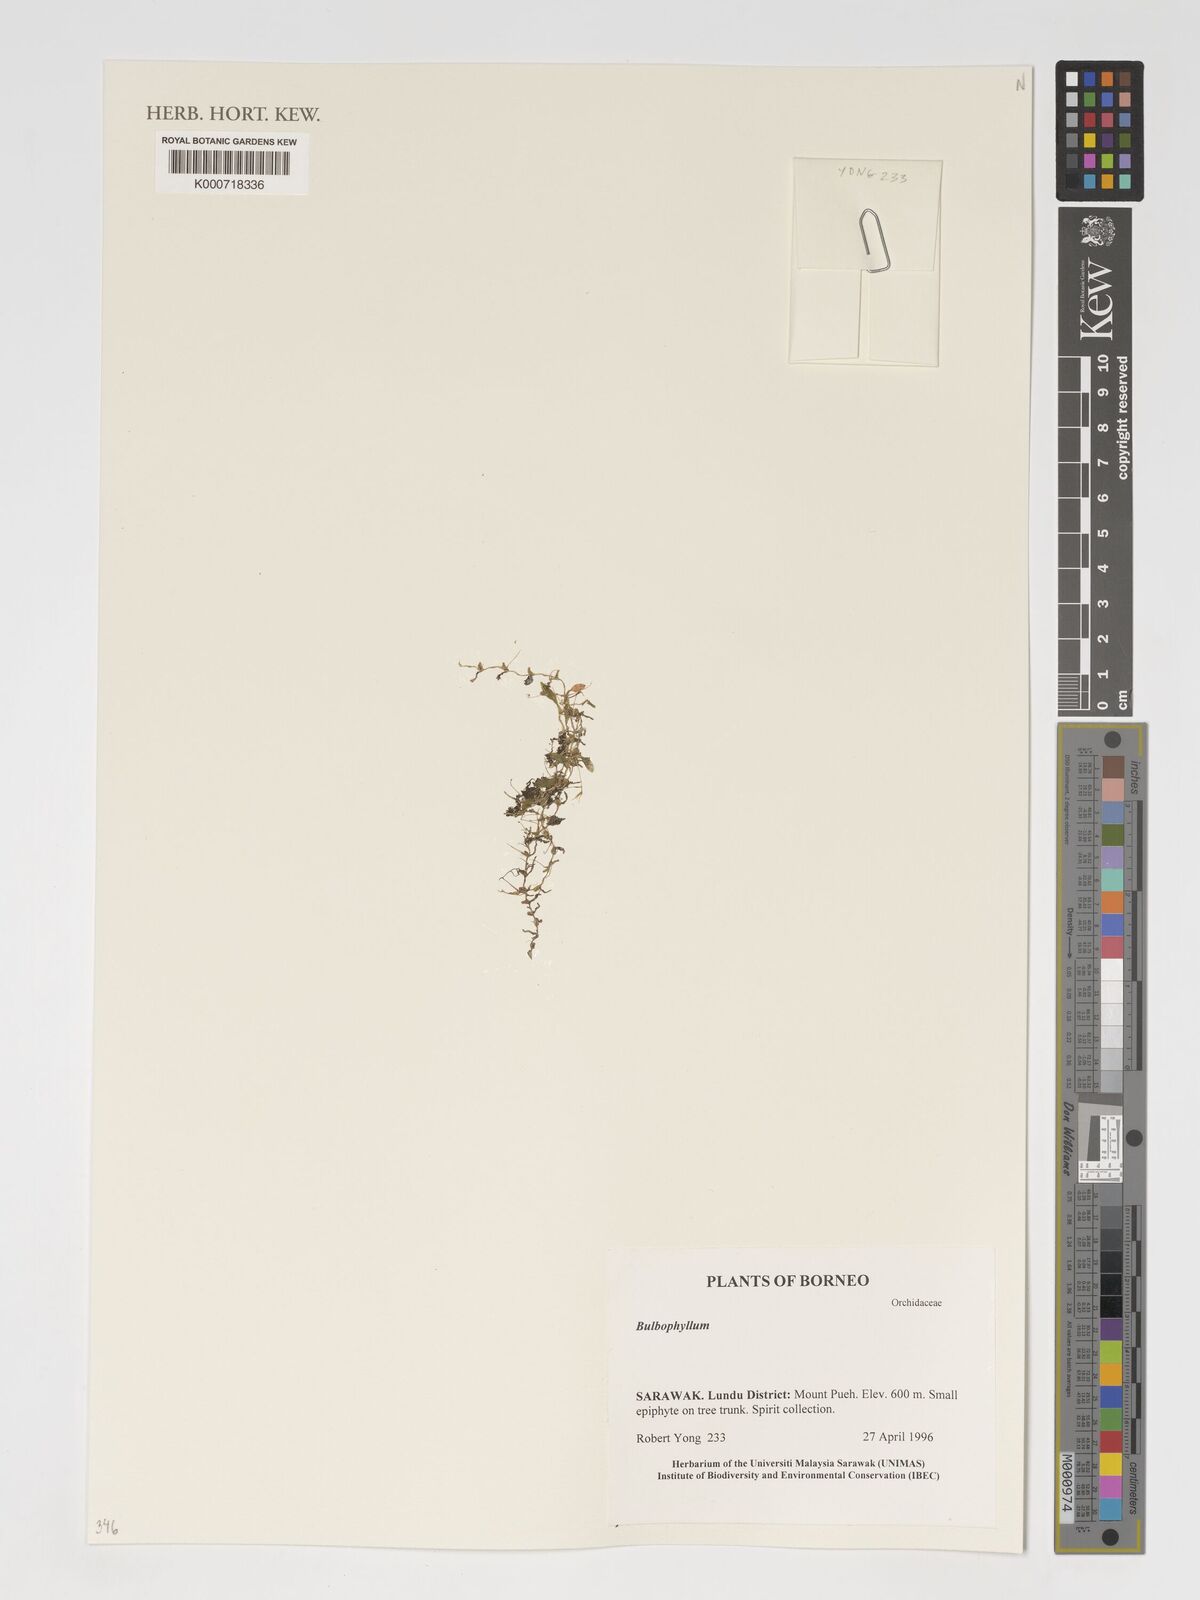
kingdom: Plantae
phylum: Tracheophyta
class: Liliopsida
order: Asparagales
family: Orchidaceae
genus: Bulbophyllum
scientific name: Bulbophyllum
